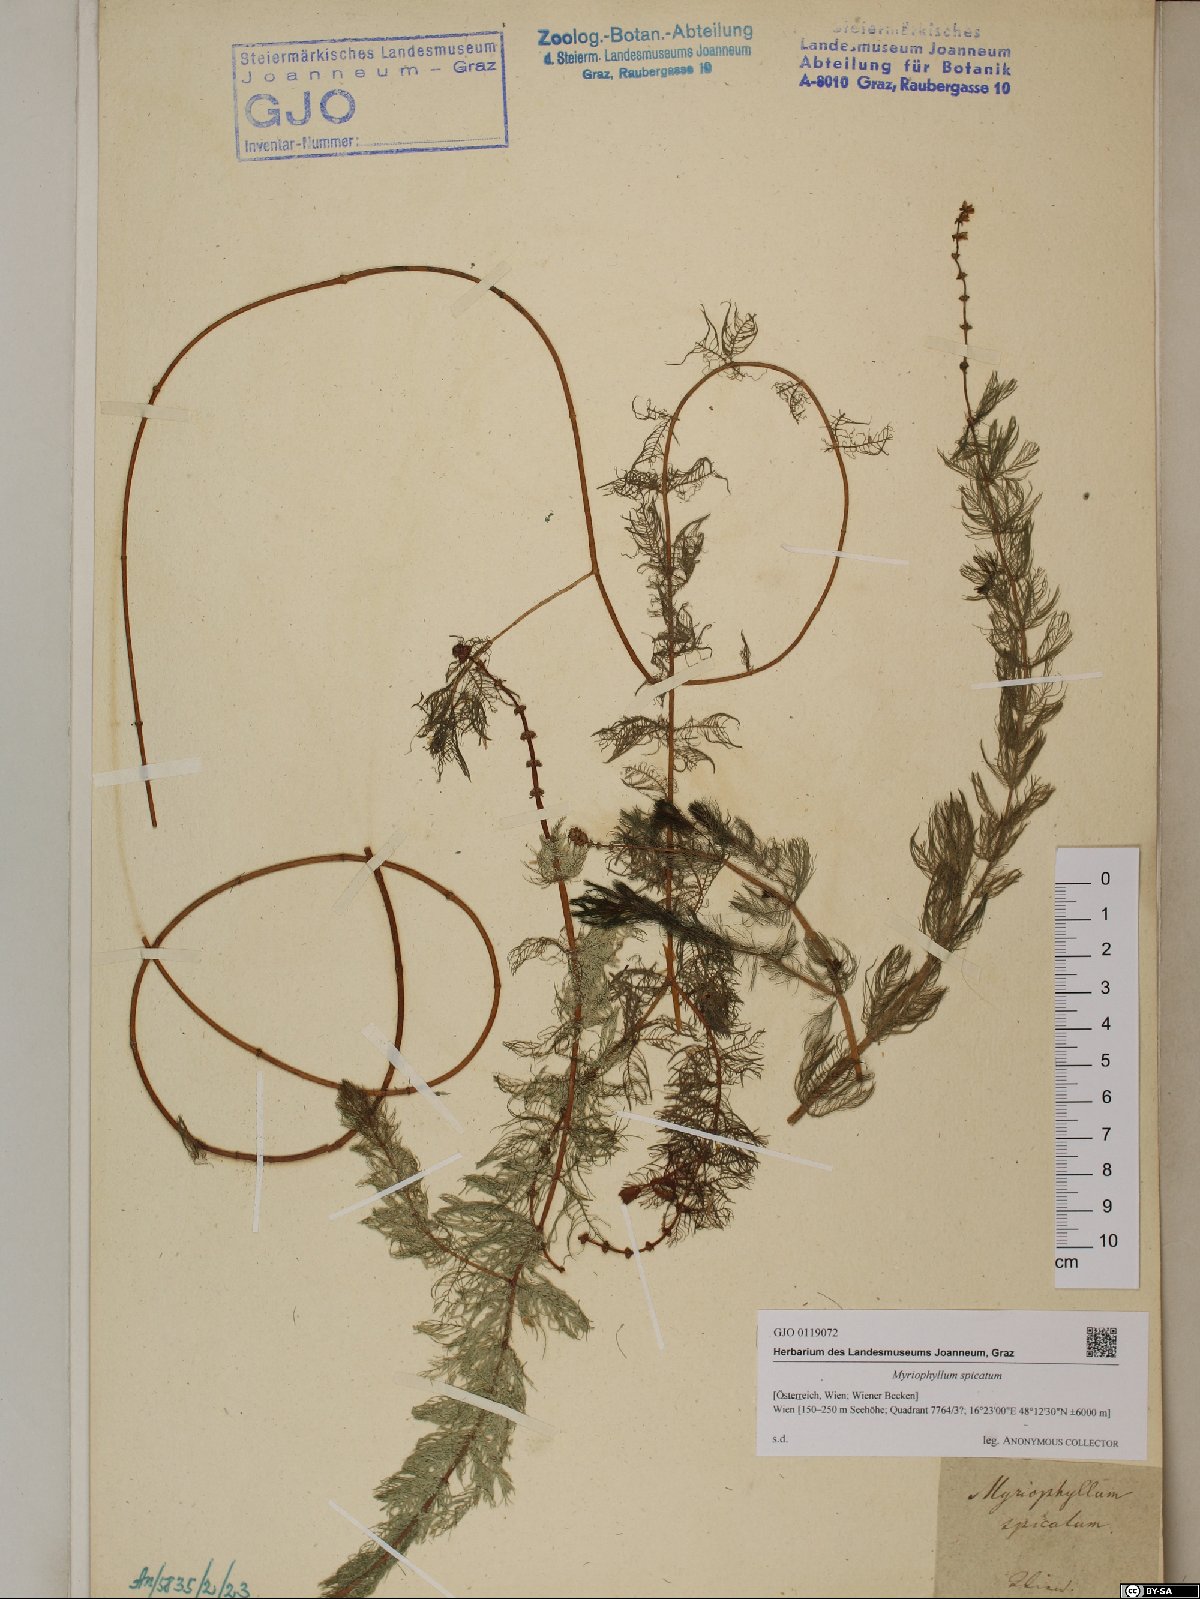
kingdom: Plantae
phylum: Tracheophyta
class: Magnoliopsida
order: Saxifragales
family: Haloragaceae
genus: Myriophyllum
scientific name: Myriophyllum spicatum
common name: Spiked water-milfoil
